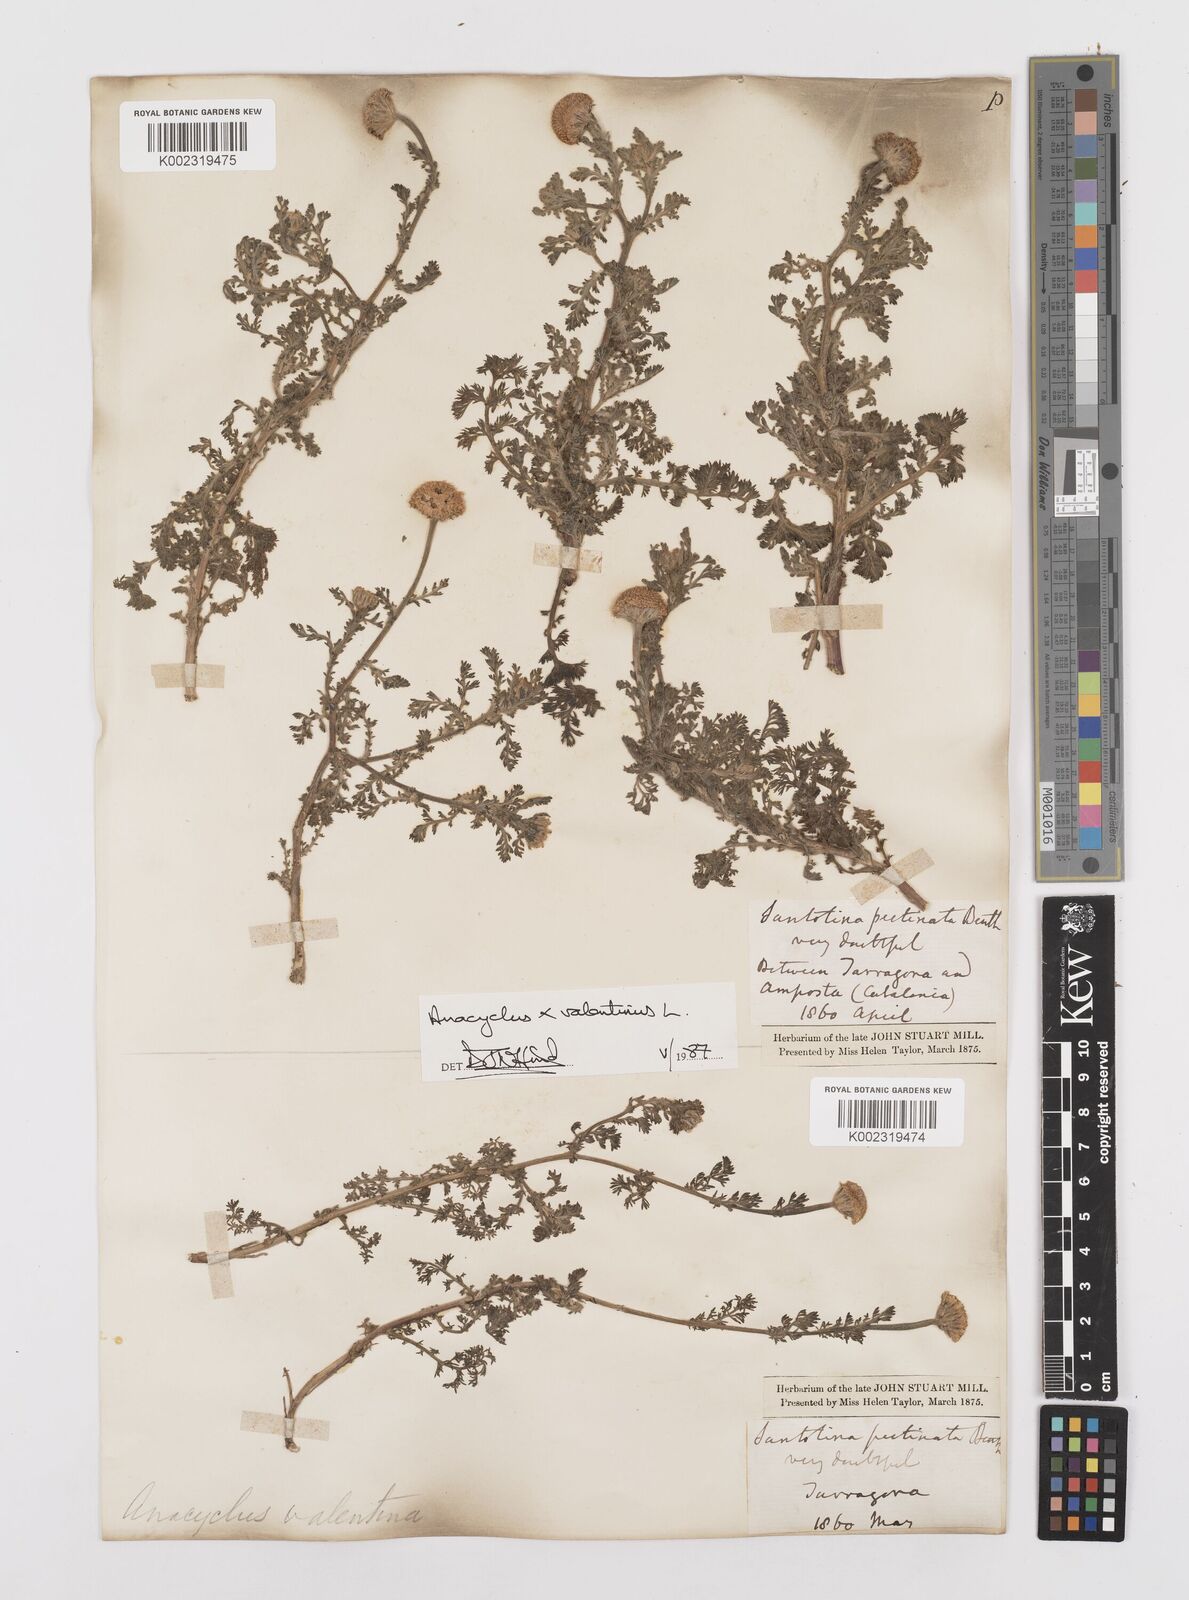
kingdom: Plantae
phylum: Tracheophyta
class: Magnoliopsida
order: Asterales
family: Asteraceae
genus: Anacyclus
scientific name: Anacyclus valentinus
